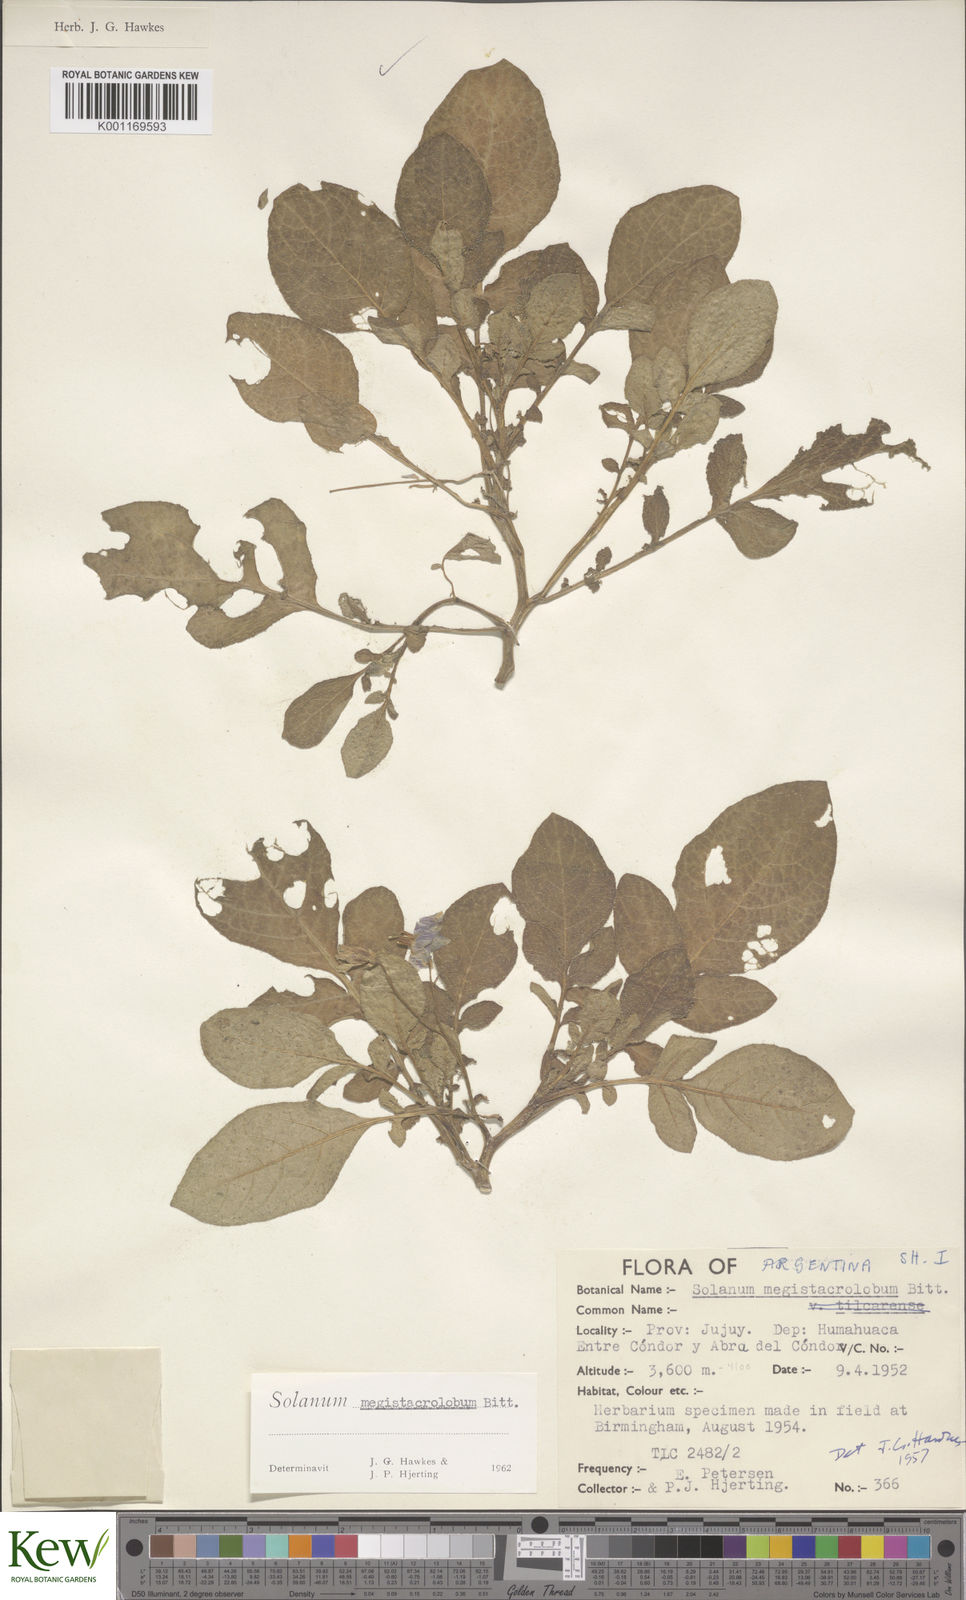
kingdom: Plantae
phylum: Tracheophyta
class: Magnoliopsida
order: Solanales
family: Solanaceae
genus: Solanum
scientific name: Solanum boliviense
